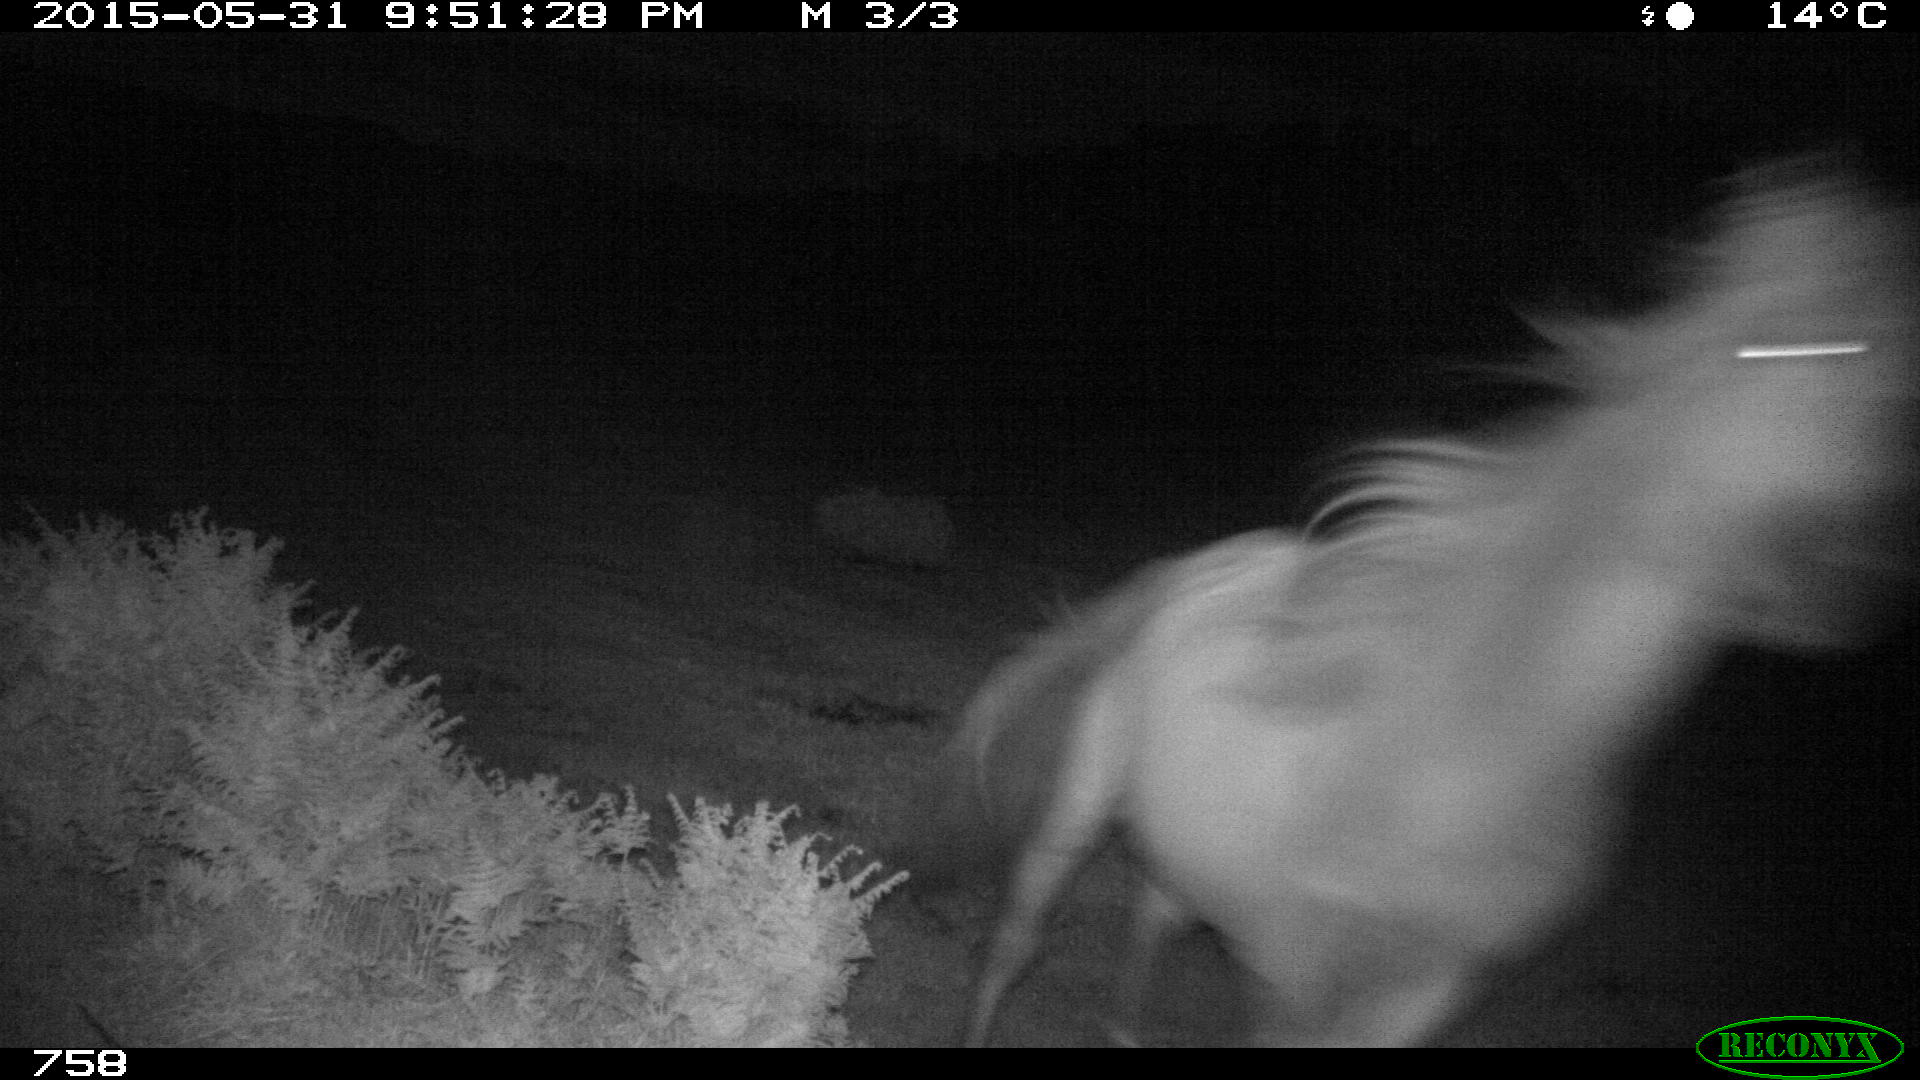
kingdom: Animalia
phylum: Chordata
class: Mammalia
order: Perissodactyla
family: Equidae
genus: Equus
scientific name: Equus caballus
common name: Horse
